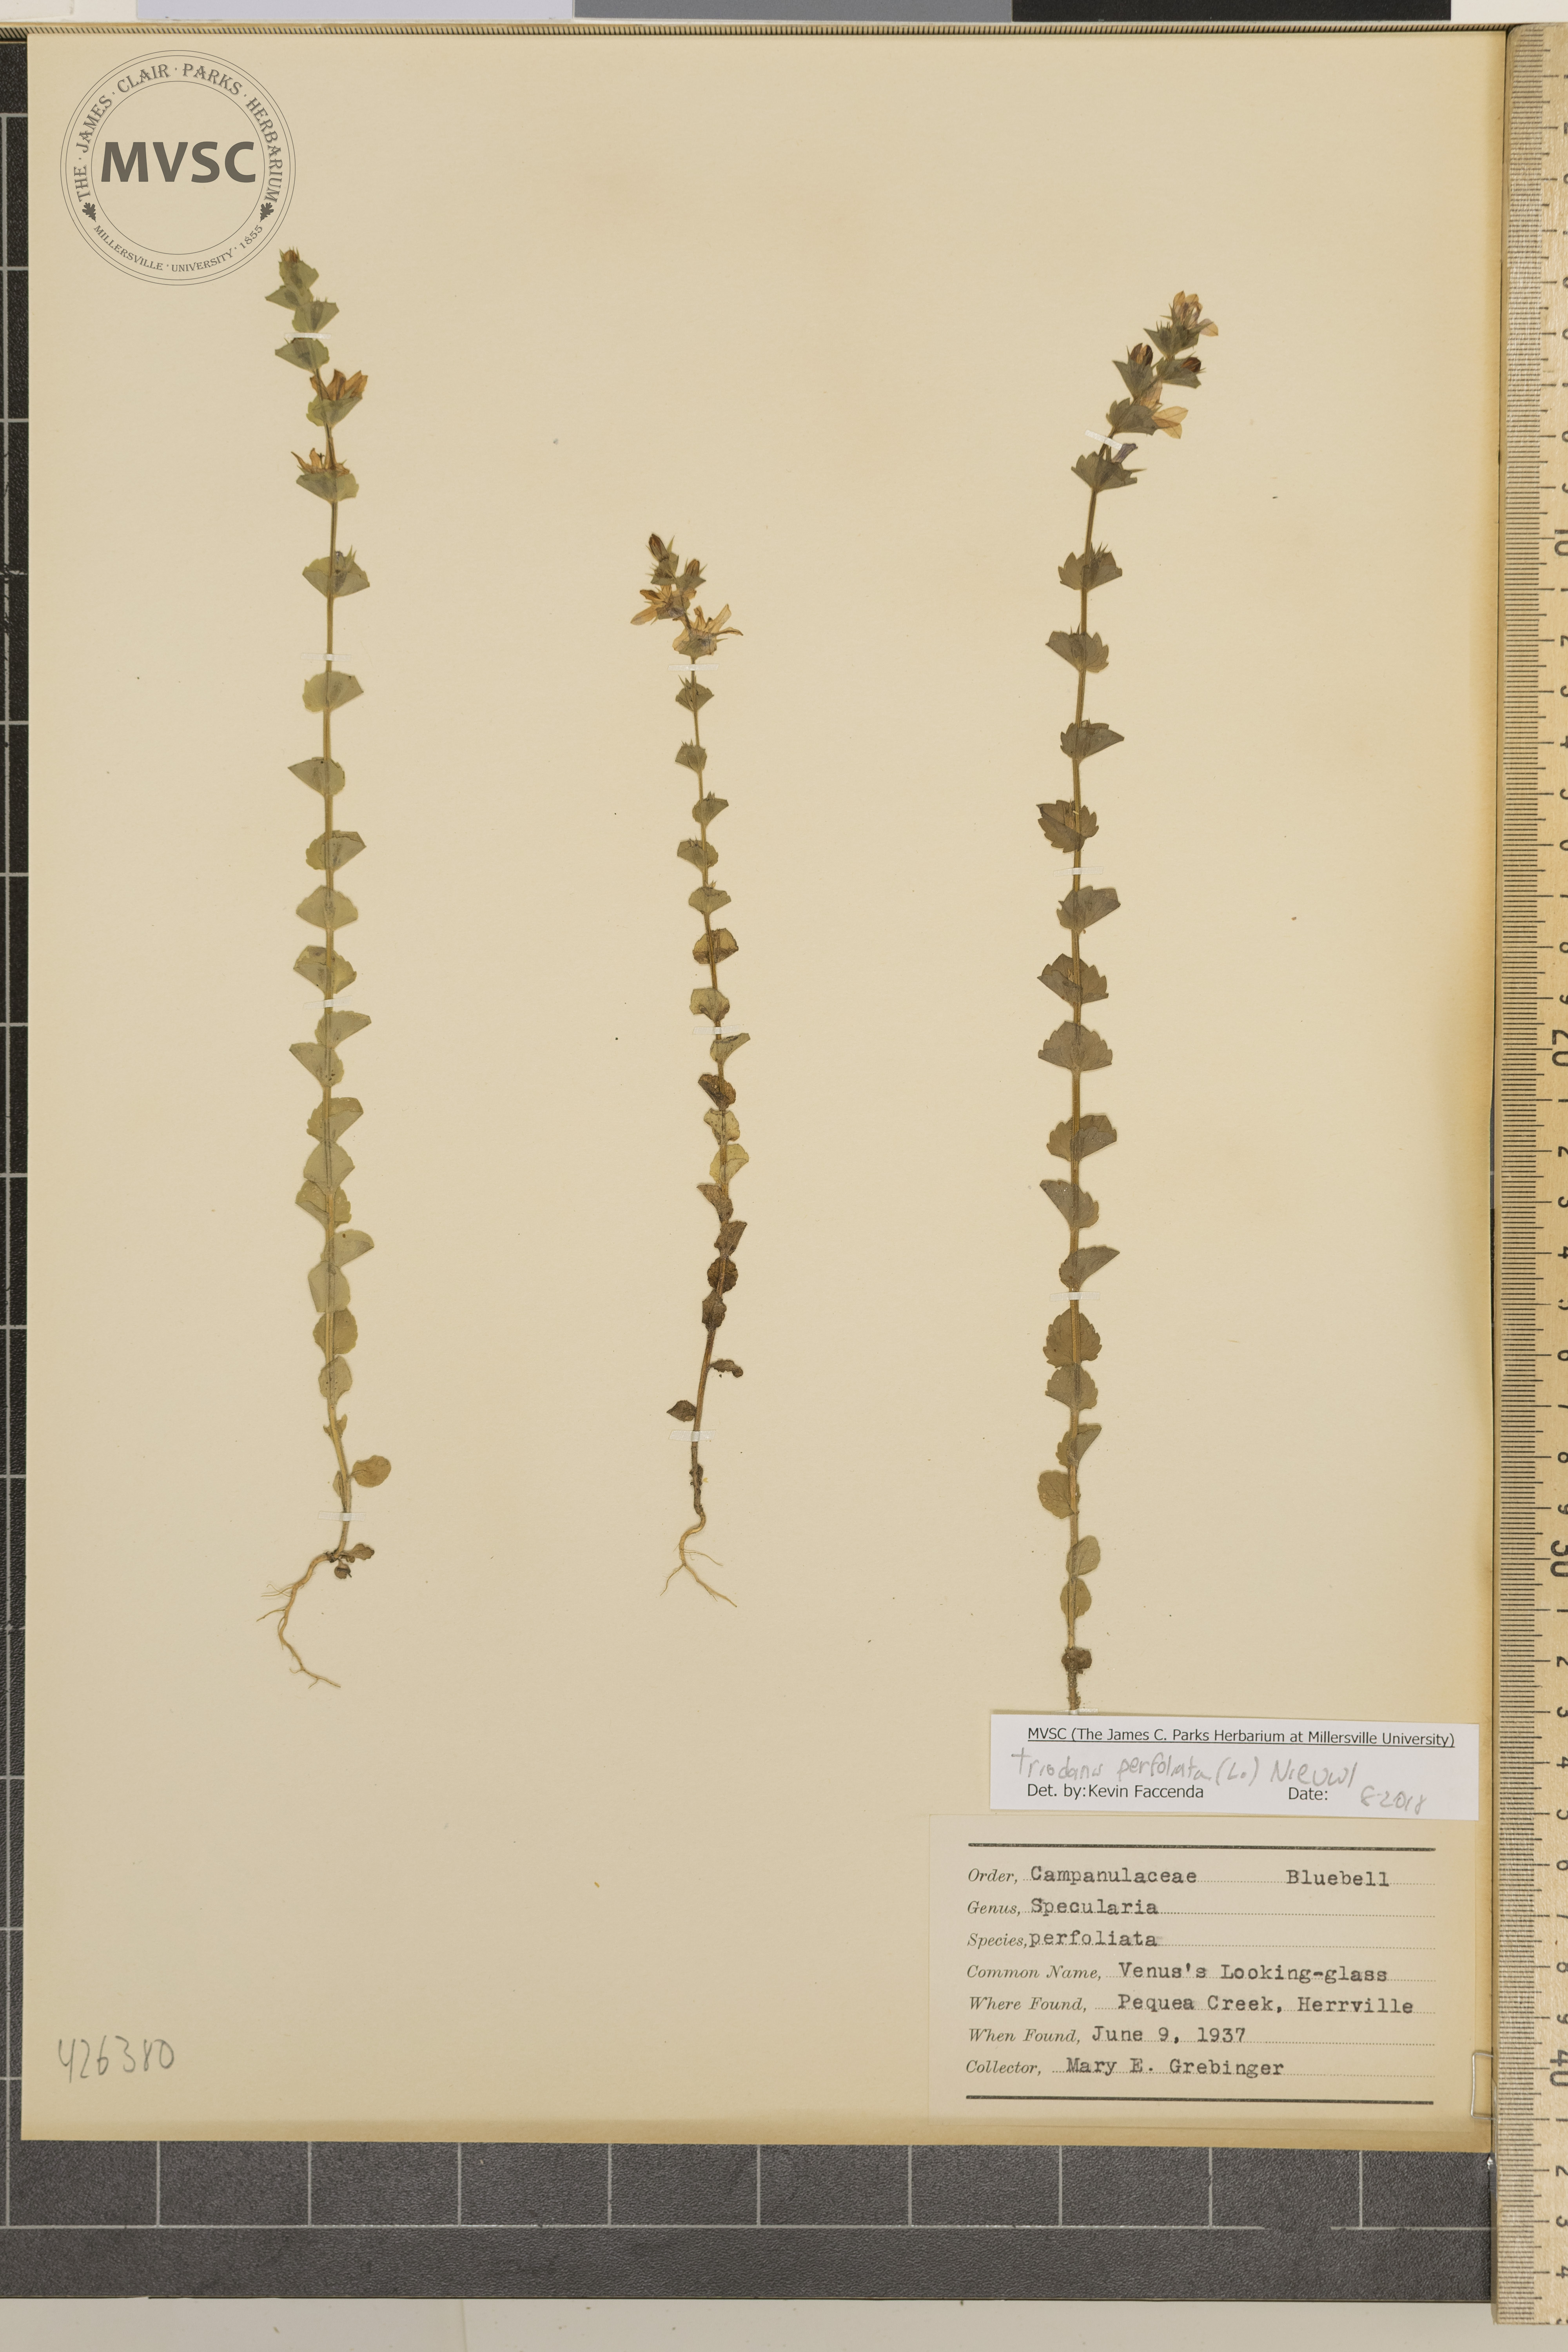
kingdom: Plantae
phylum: Tracheophyta
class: Magnoliopsida
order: Asterales
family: Campanulaceae
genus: Triodanis
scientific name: Triodanis perfoliata
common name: Venus' looking-glass
